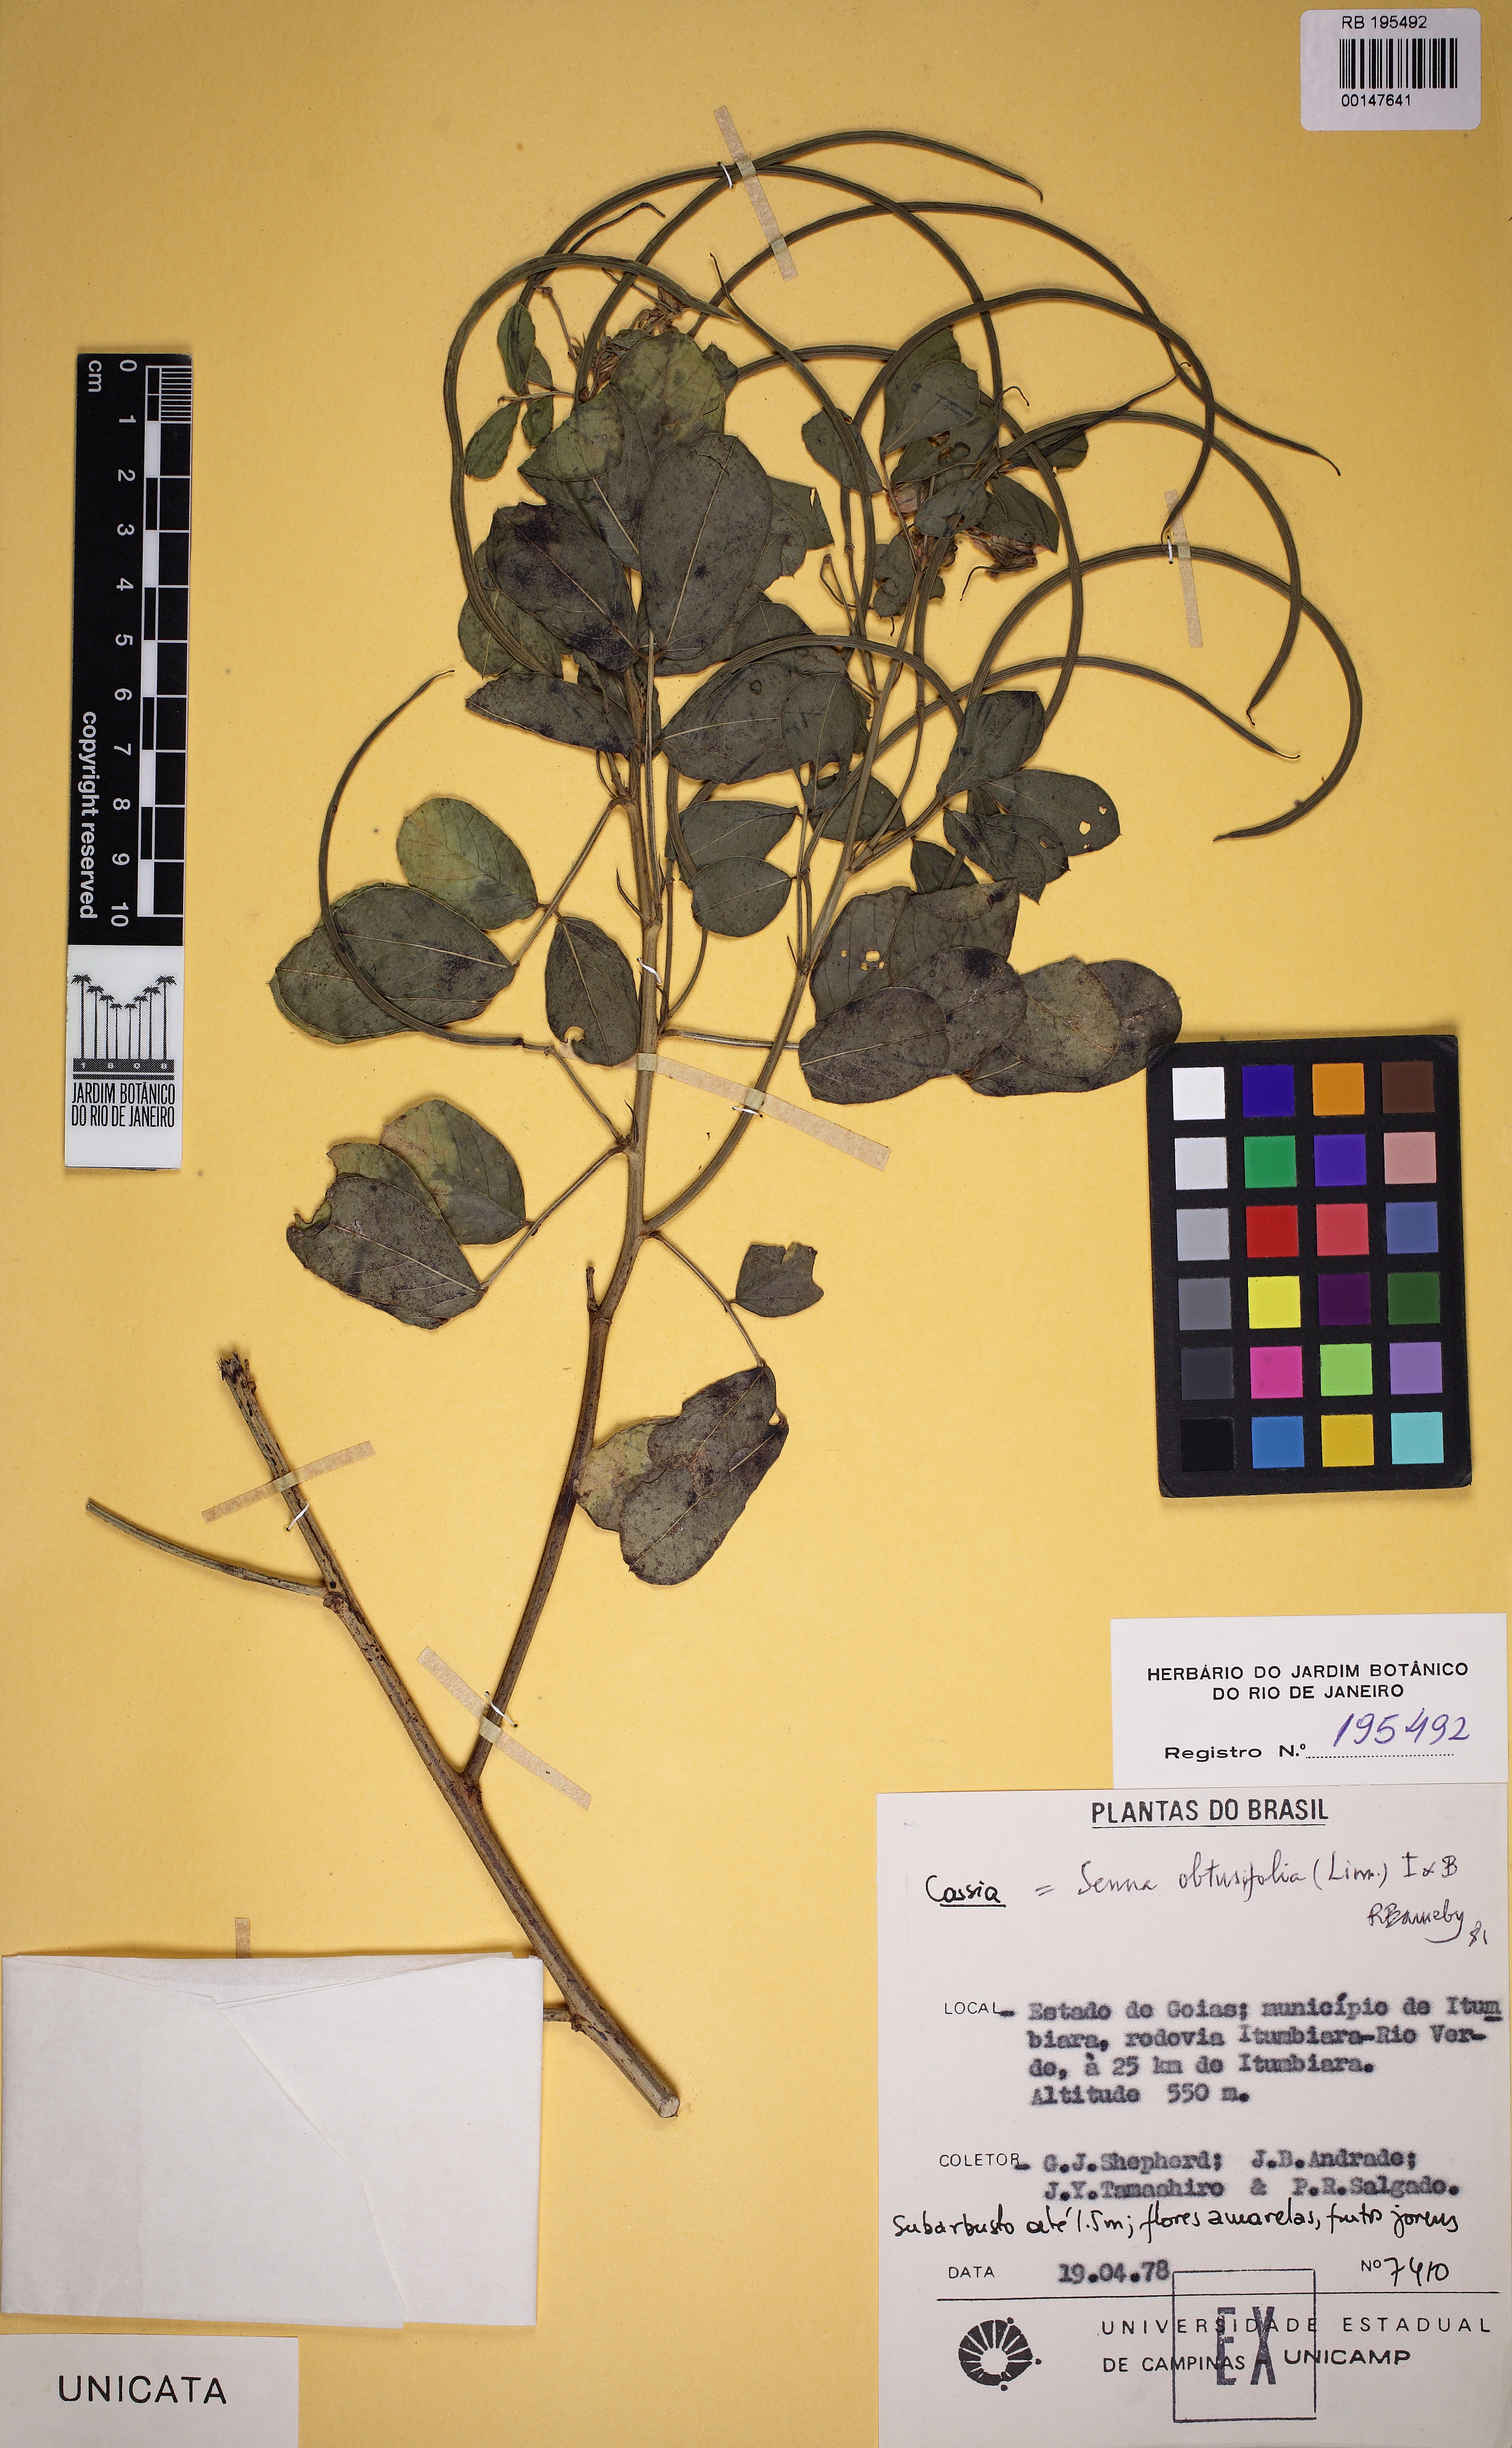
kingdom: Plantae
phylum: Tracheophyta
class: Magnoliopsida
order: Fabales
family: Fabaceae
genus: Senna
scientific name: Senna obtusifolia
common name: Java-bean
